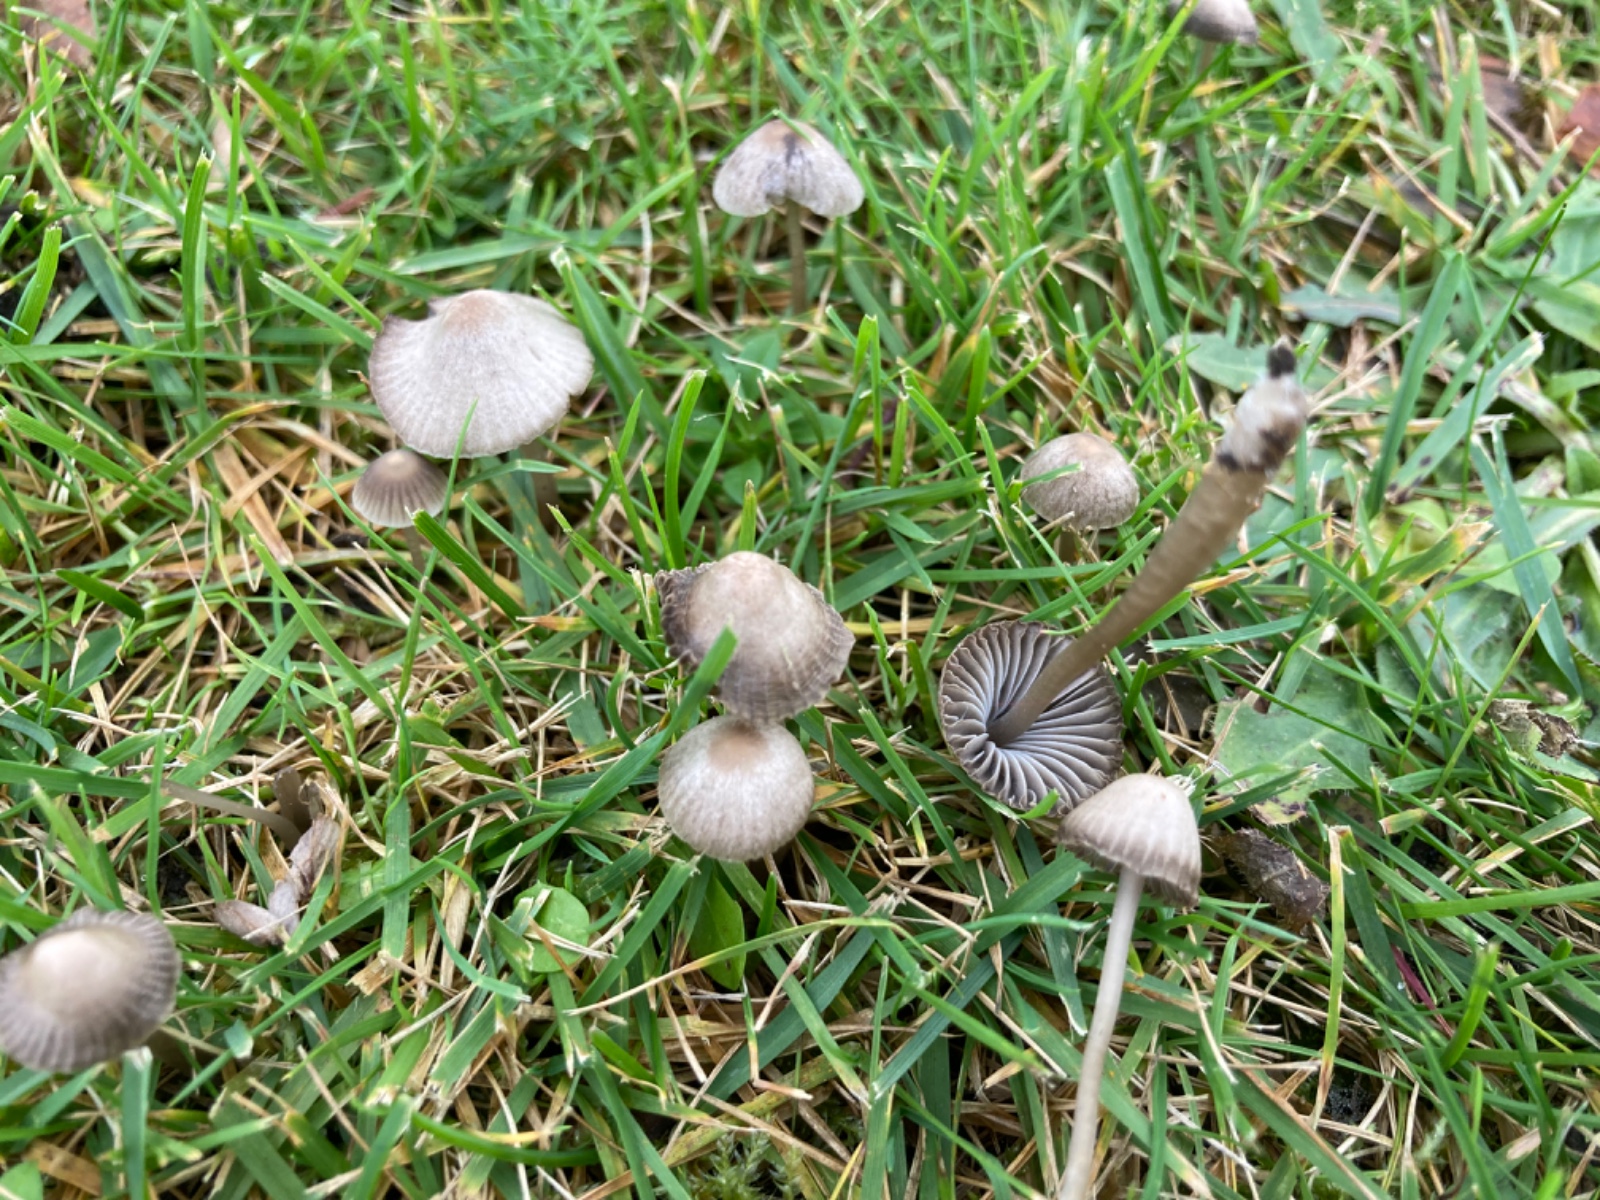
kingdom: Fungi
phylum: Basidiomycota
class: Agaricomycetes
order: Agaricales
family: Mycenaceae
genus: Mycena
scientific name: Mycena aetites
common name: plæne-huesvamp
